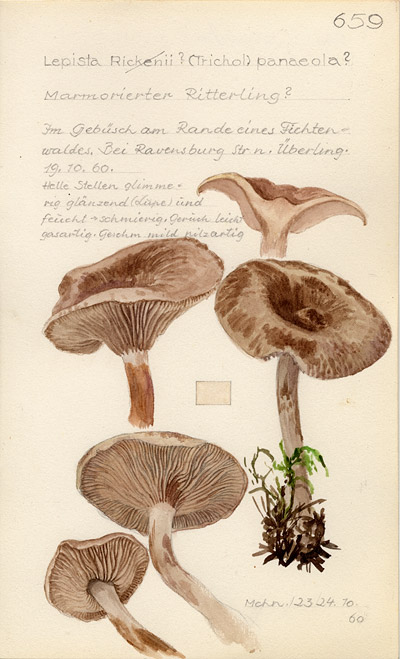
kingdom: Fungi
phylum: Basidiomycota
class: Agaricomycetes
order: Agaricales
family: Tricholomataceae
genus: Lepista
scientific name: Lepista luscina
